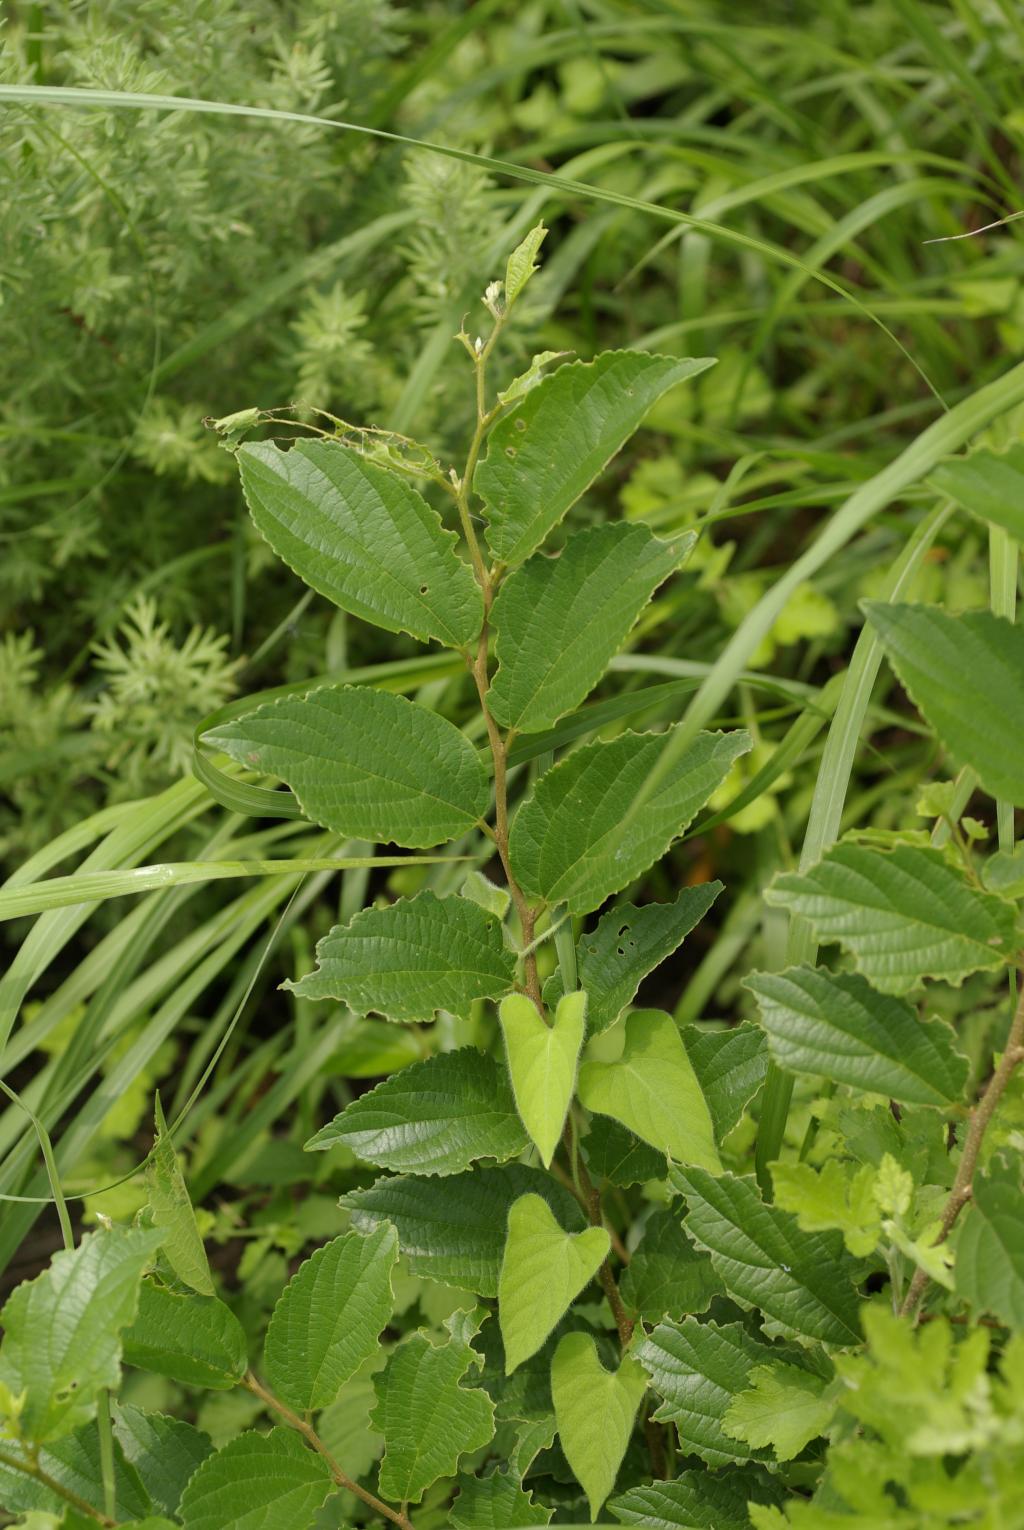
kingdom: Plantae
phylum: Tracheophyta
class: Magnoliopsida
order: Rosales
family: Cannabaceae
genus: Celtis
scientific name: Celtis sinensis
